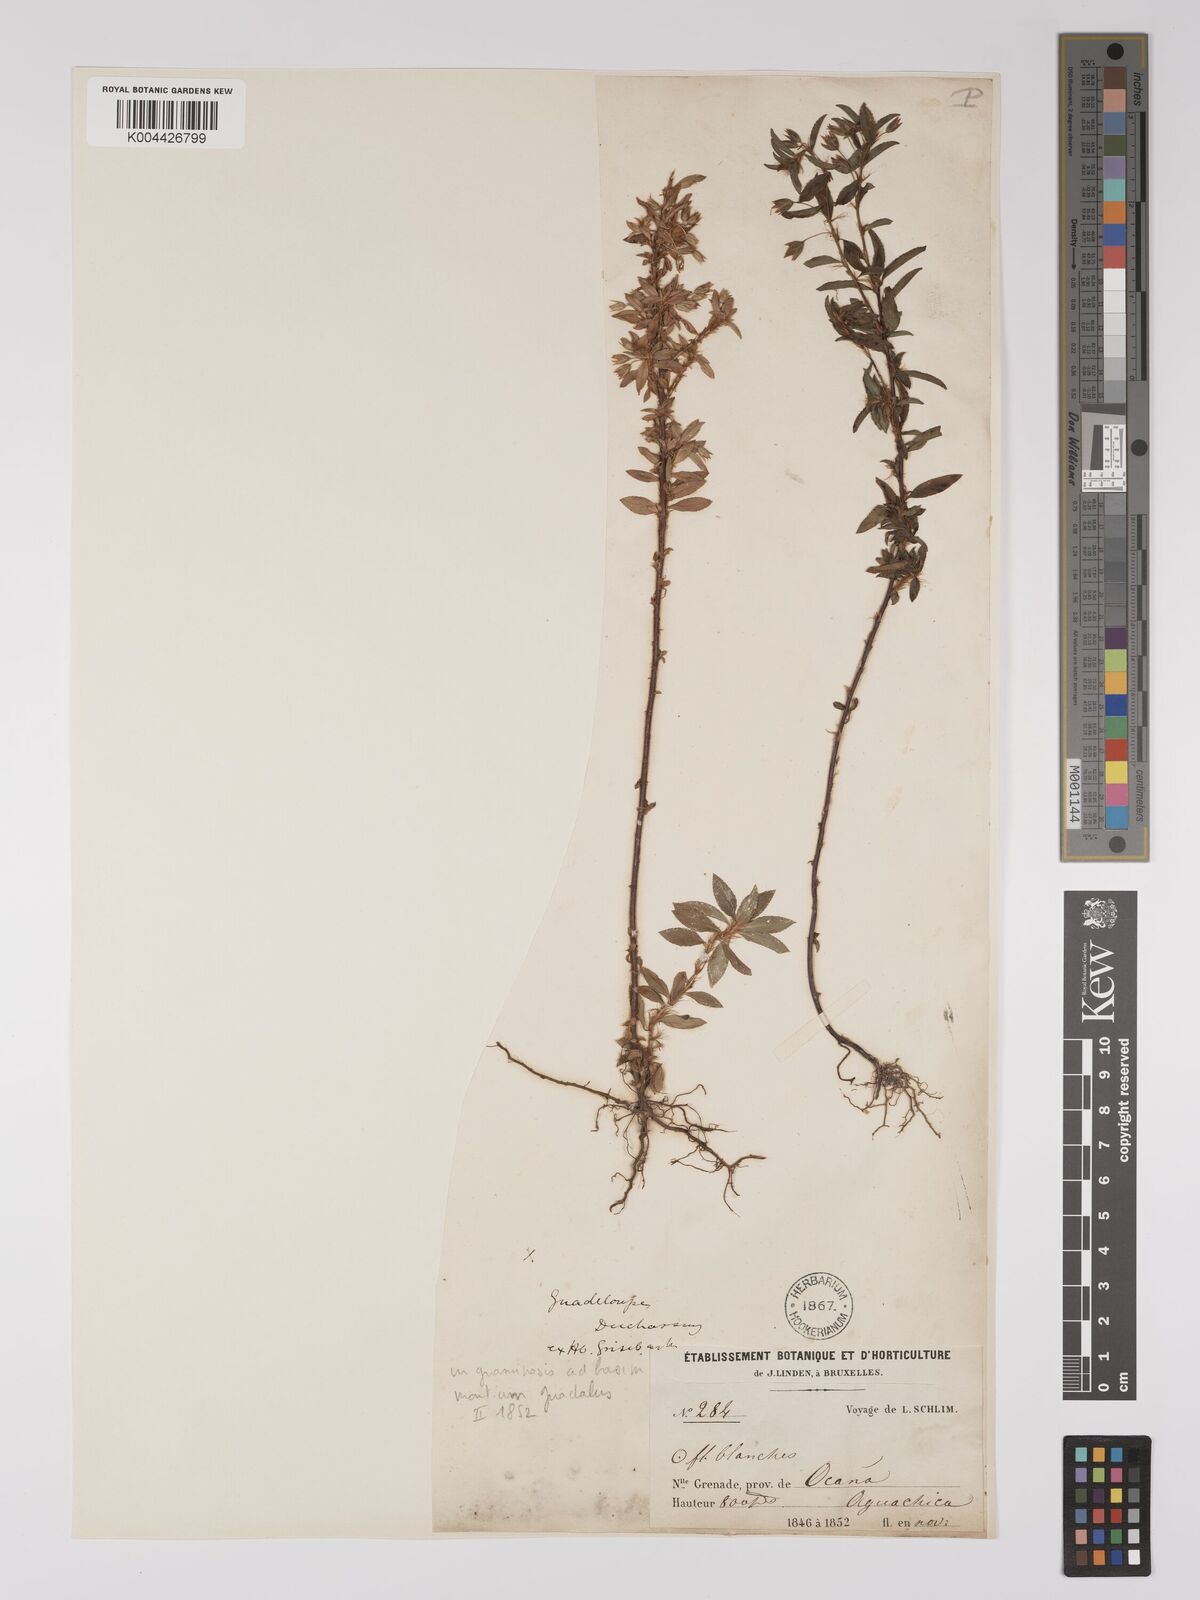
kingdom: Plantae
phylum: Tracheophyta
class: Magnoliopsida
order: Malpighiales
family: Ochnaceae
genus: Sauvagesia
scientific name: Sauvagesia erecta
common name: Creole tea
